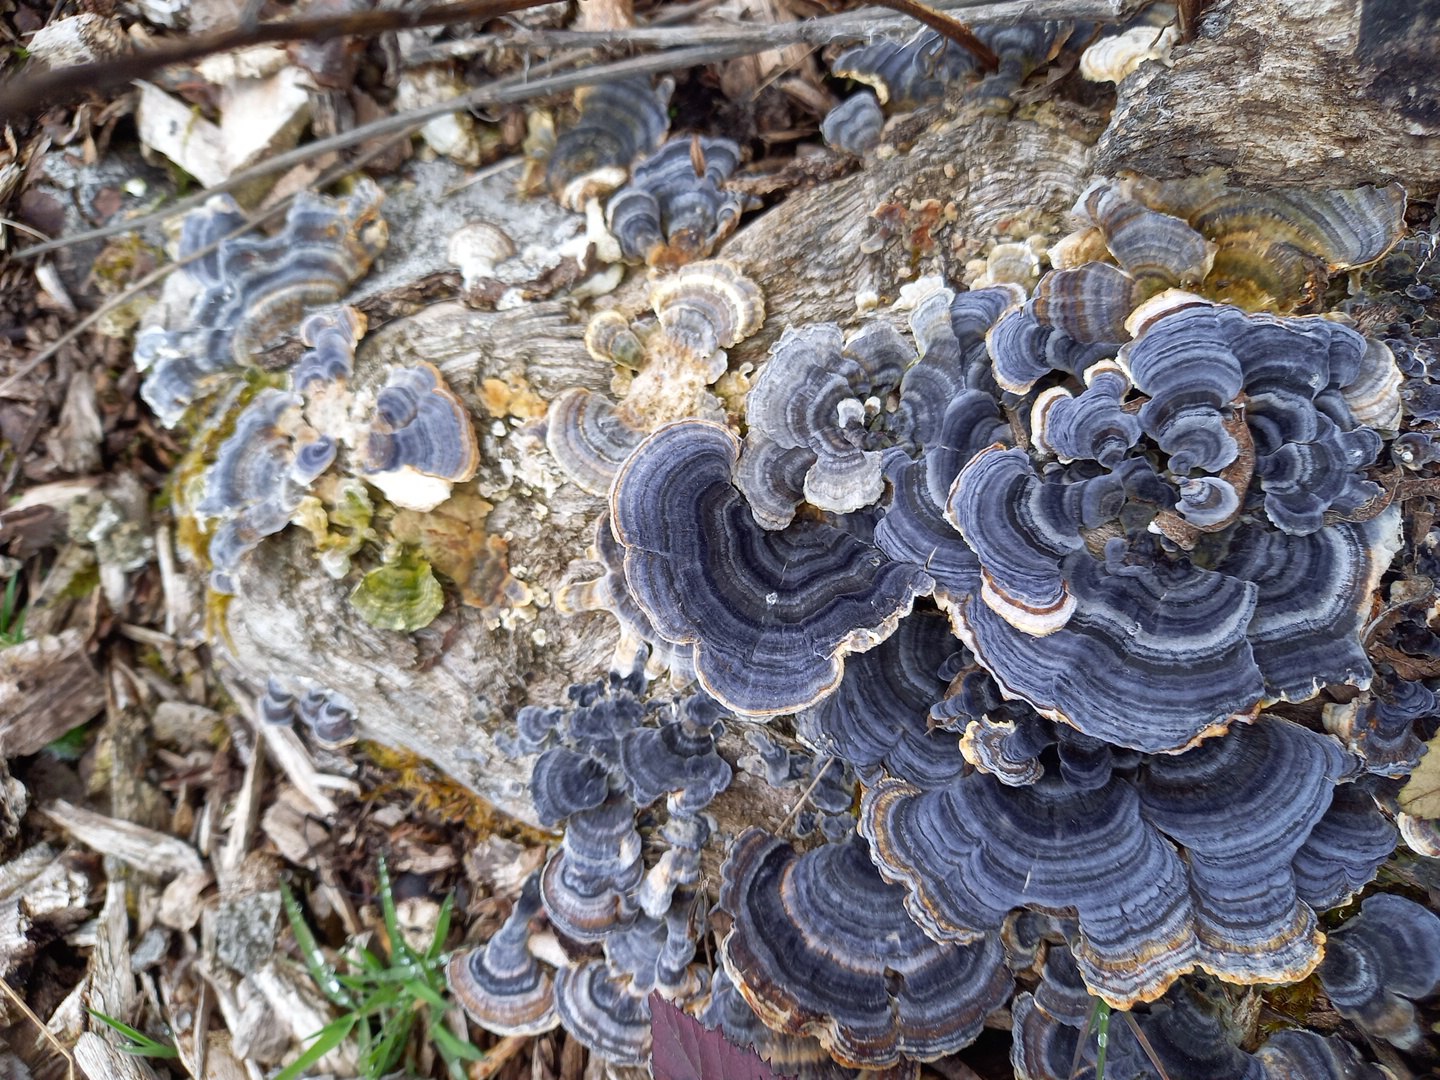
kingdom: Fungi
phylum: Basidiomycota
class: Agaricomycetes
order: Polyporales
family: Polyporaceae
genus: Trametes
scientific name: Trametes versicolor
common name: broget læderporesvamp
